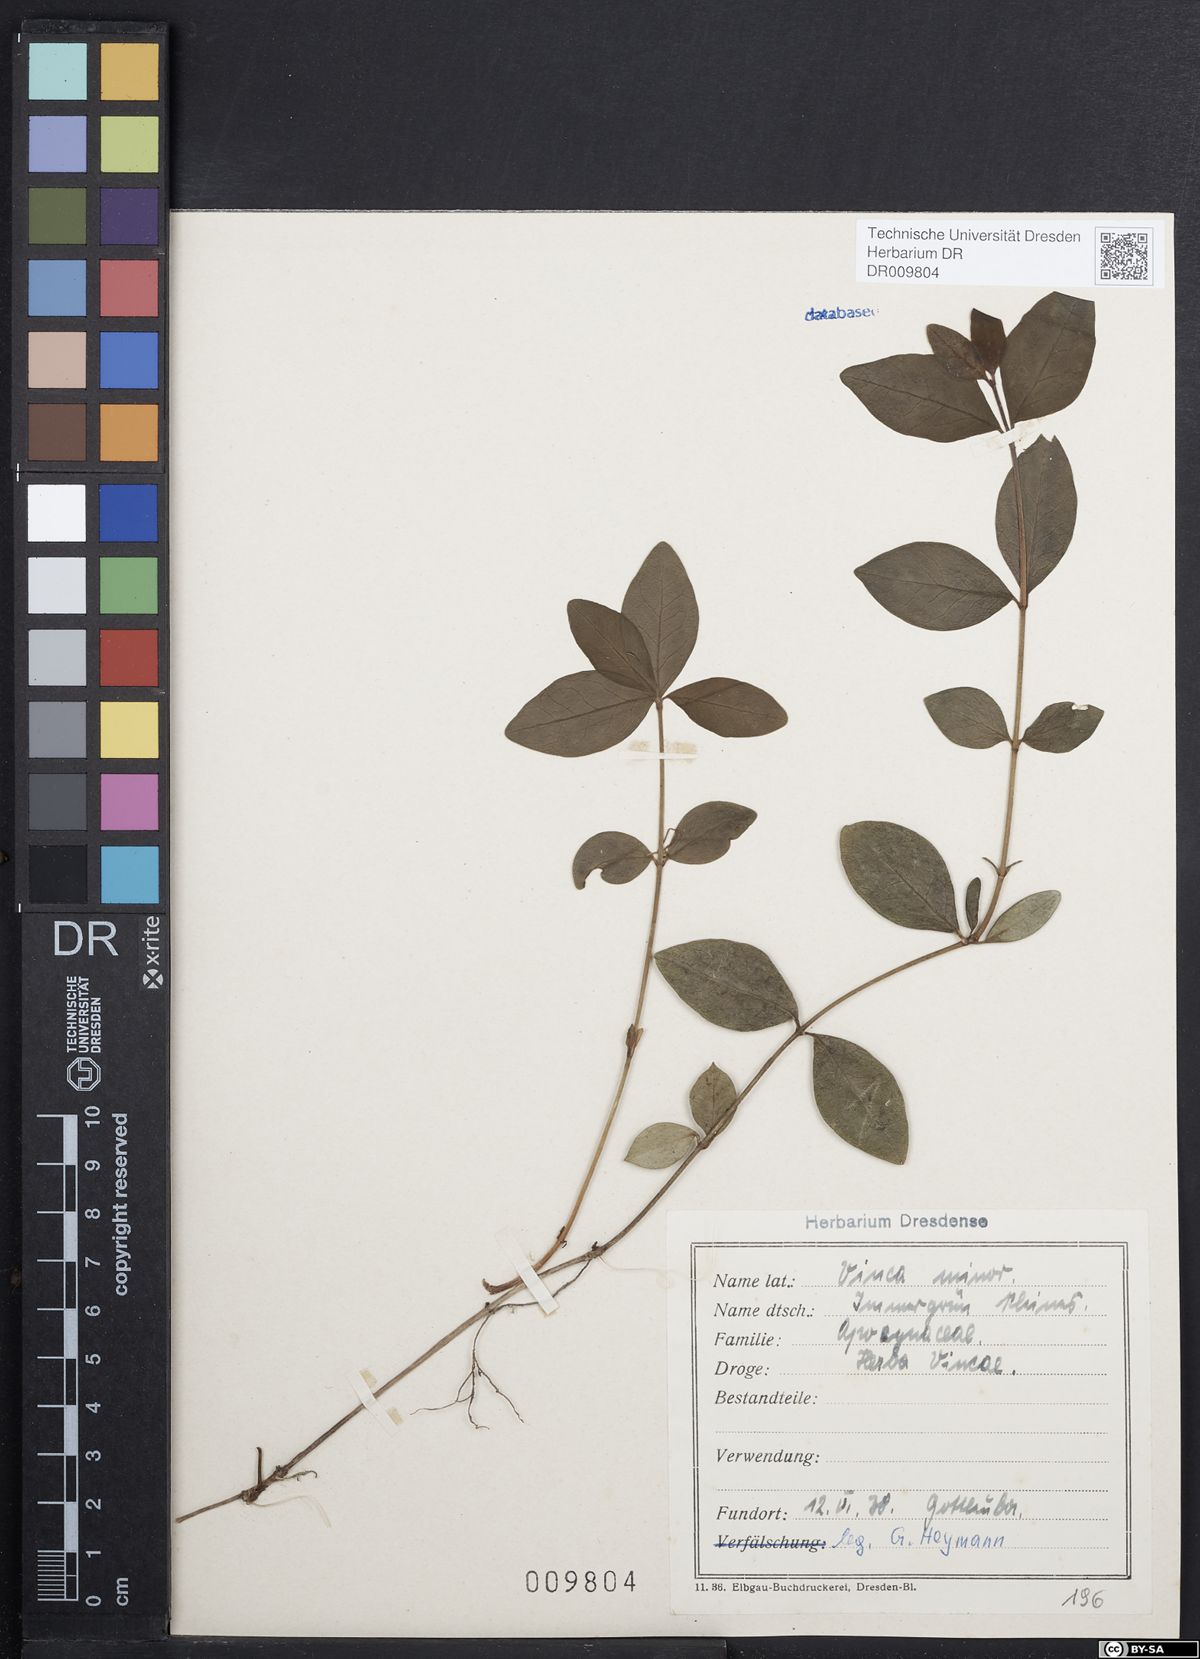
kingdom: Plantae
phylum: Tracheophyta
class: Magnoliopsida
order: Gentianales
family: Apocynaceae
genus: Vinca
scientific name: Vinca minor
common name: Lesser periwinkle
